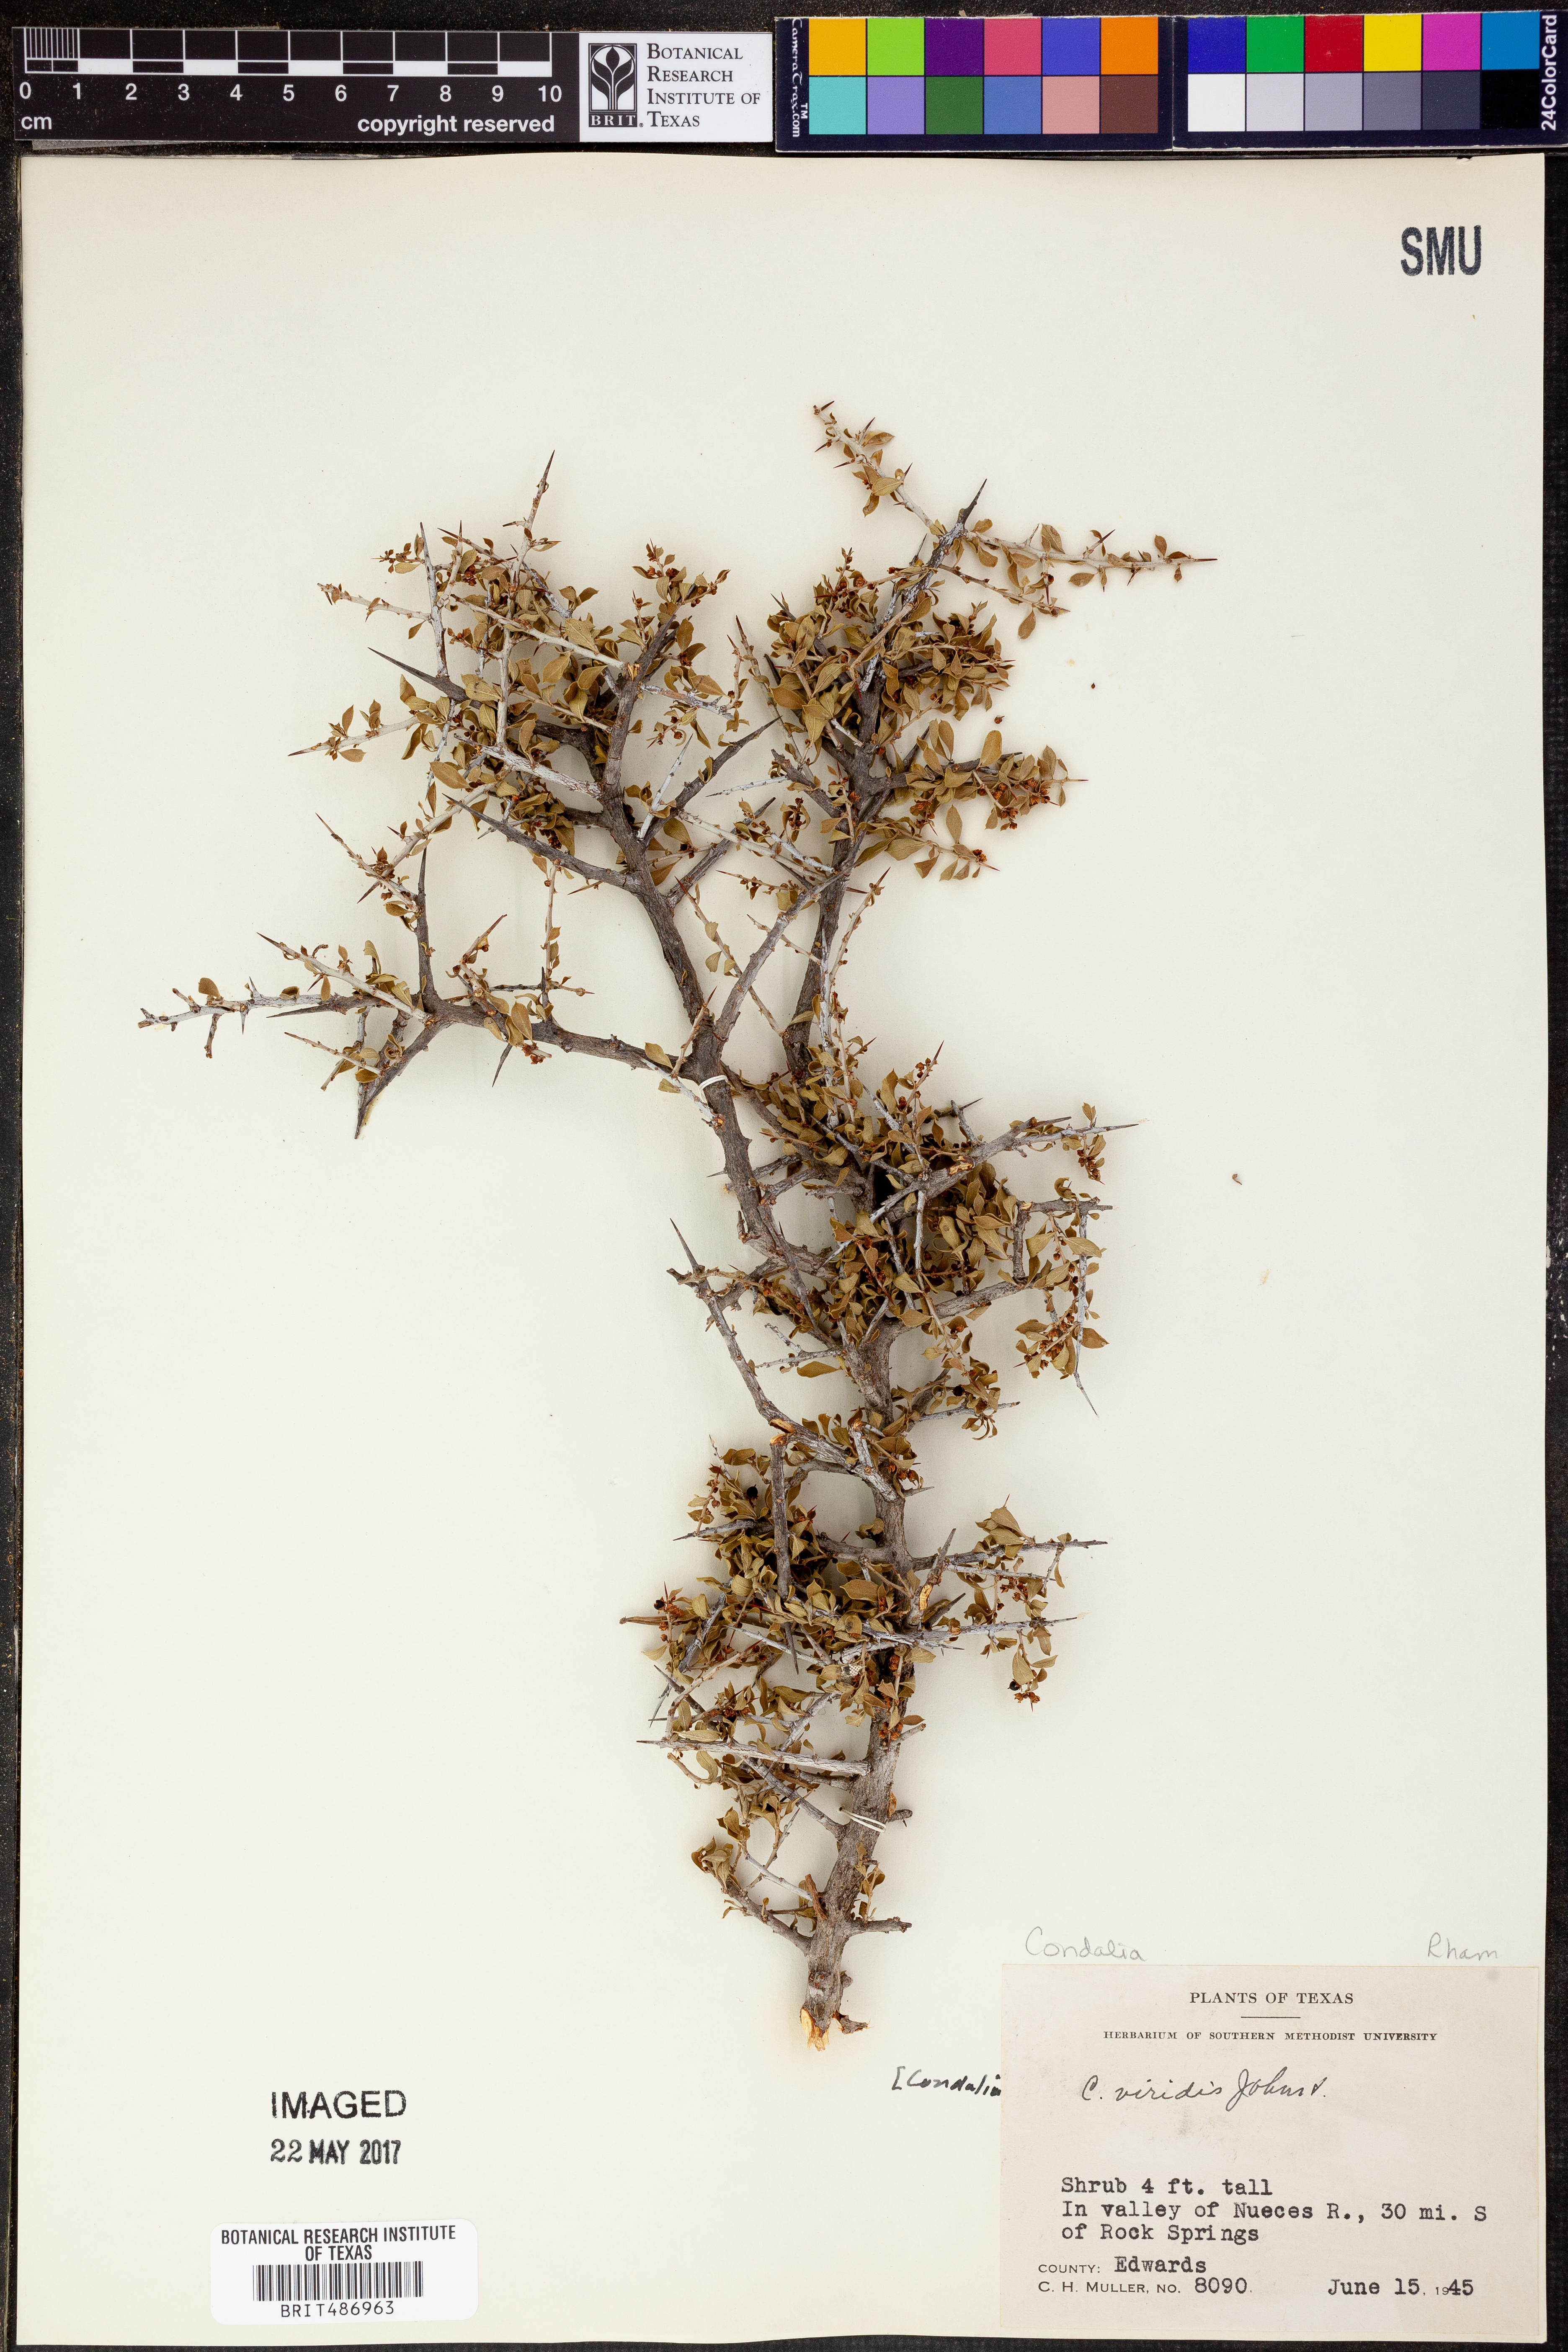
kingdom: Plantae
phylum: Tracheophyta
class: Magnoliopsida
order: Rosales
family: Rhamnaceae
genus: Condalia
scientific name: Condalia viridis
